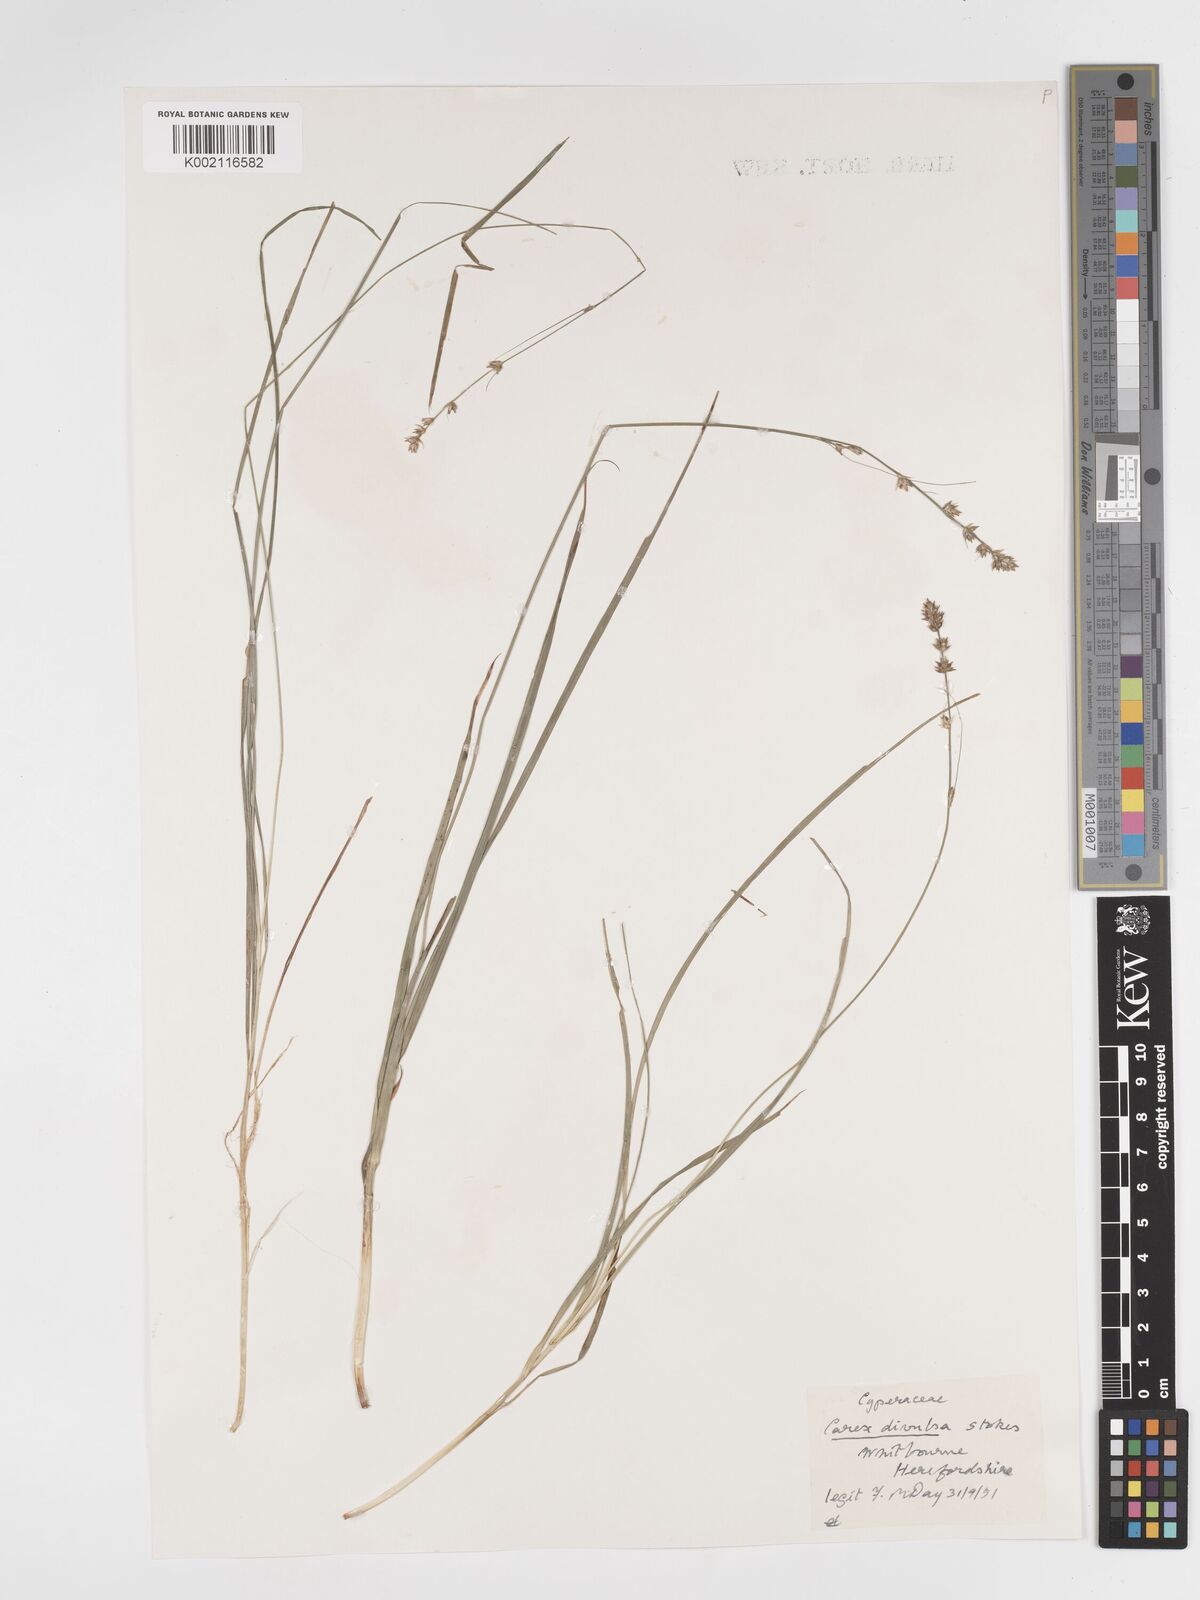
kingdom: Plantae
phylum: Tracheophyta
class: Liliopsida
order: Poales
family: Cyperaceae
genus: Carex
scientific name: Carex divulsa
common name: Grassland sedge
